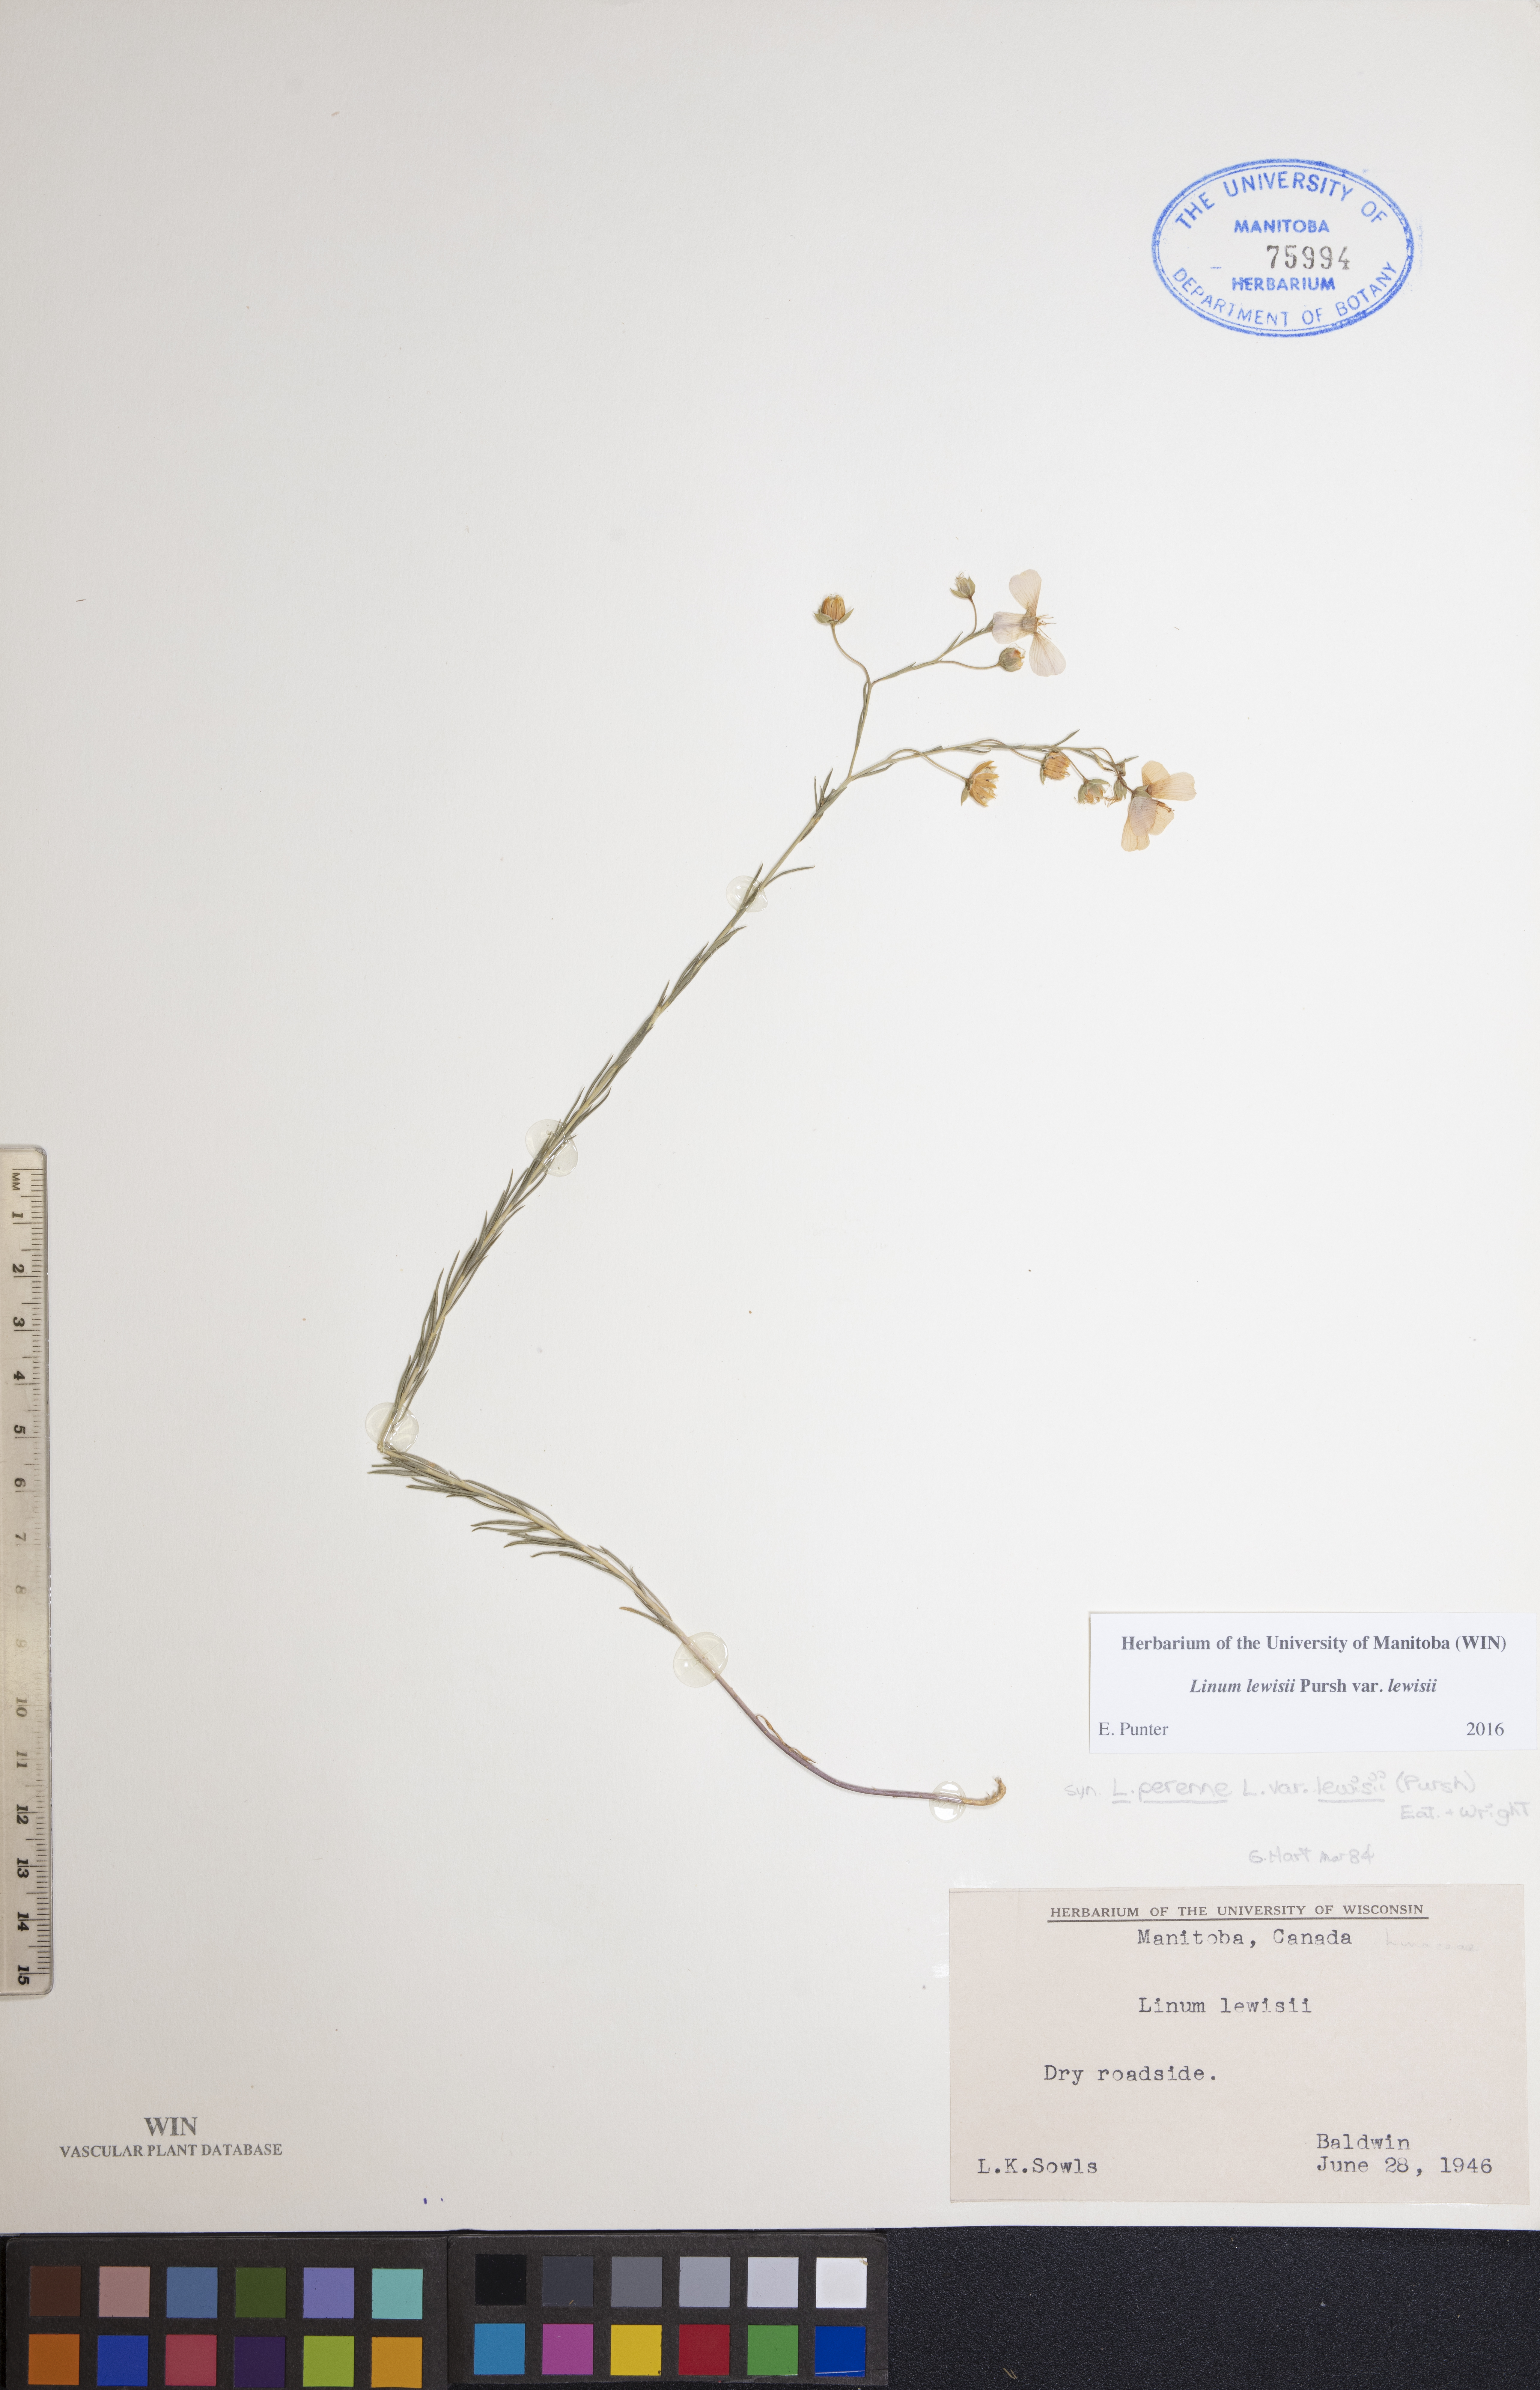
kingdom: Plantae
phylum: Tracheophyta
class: Magnoliopsida
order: Malpighiales
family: Linaceae
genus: Linum
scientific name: Linum lewisii
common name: Prairie flax
